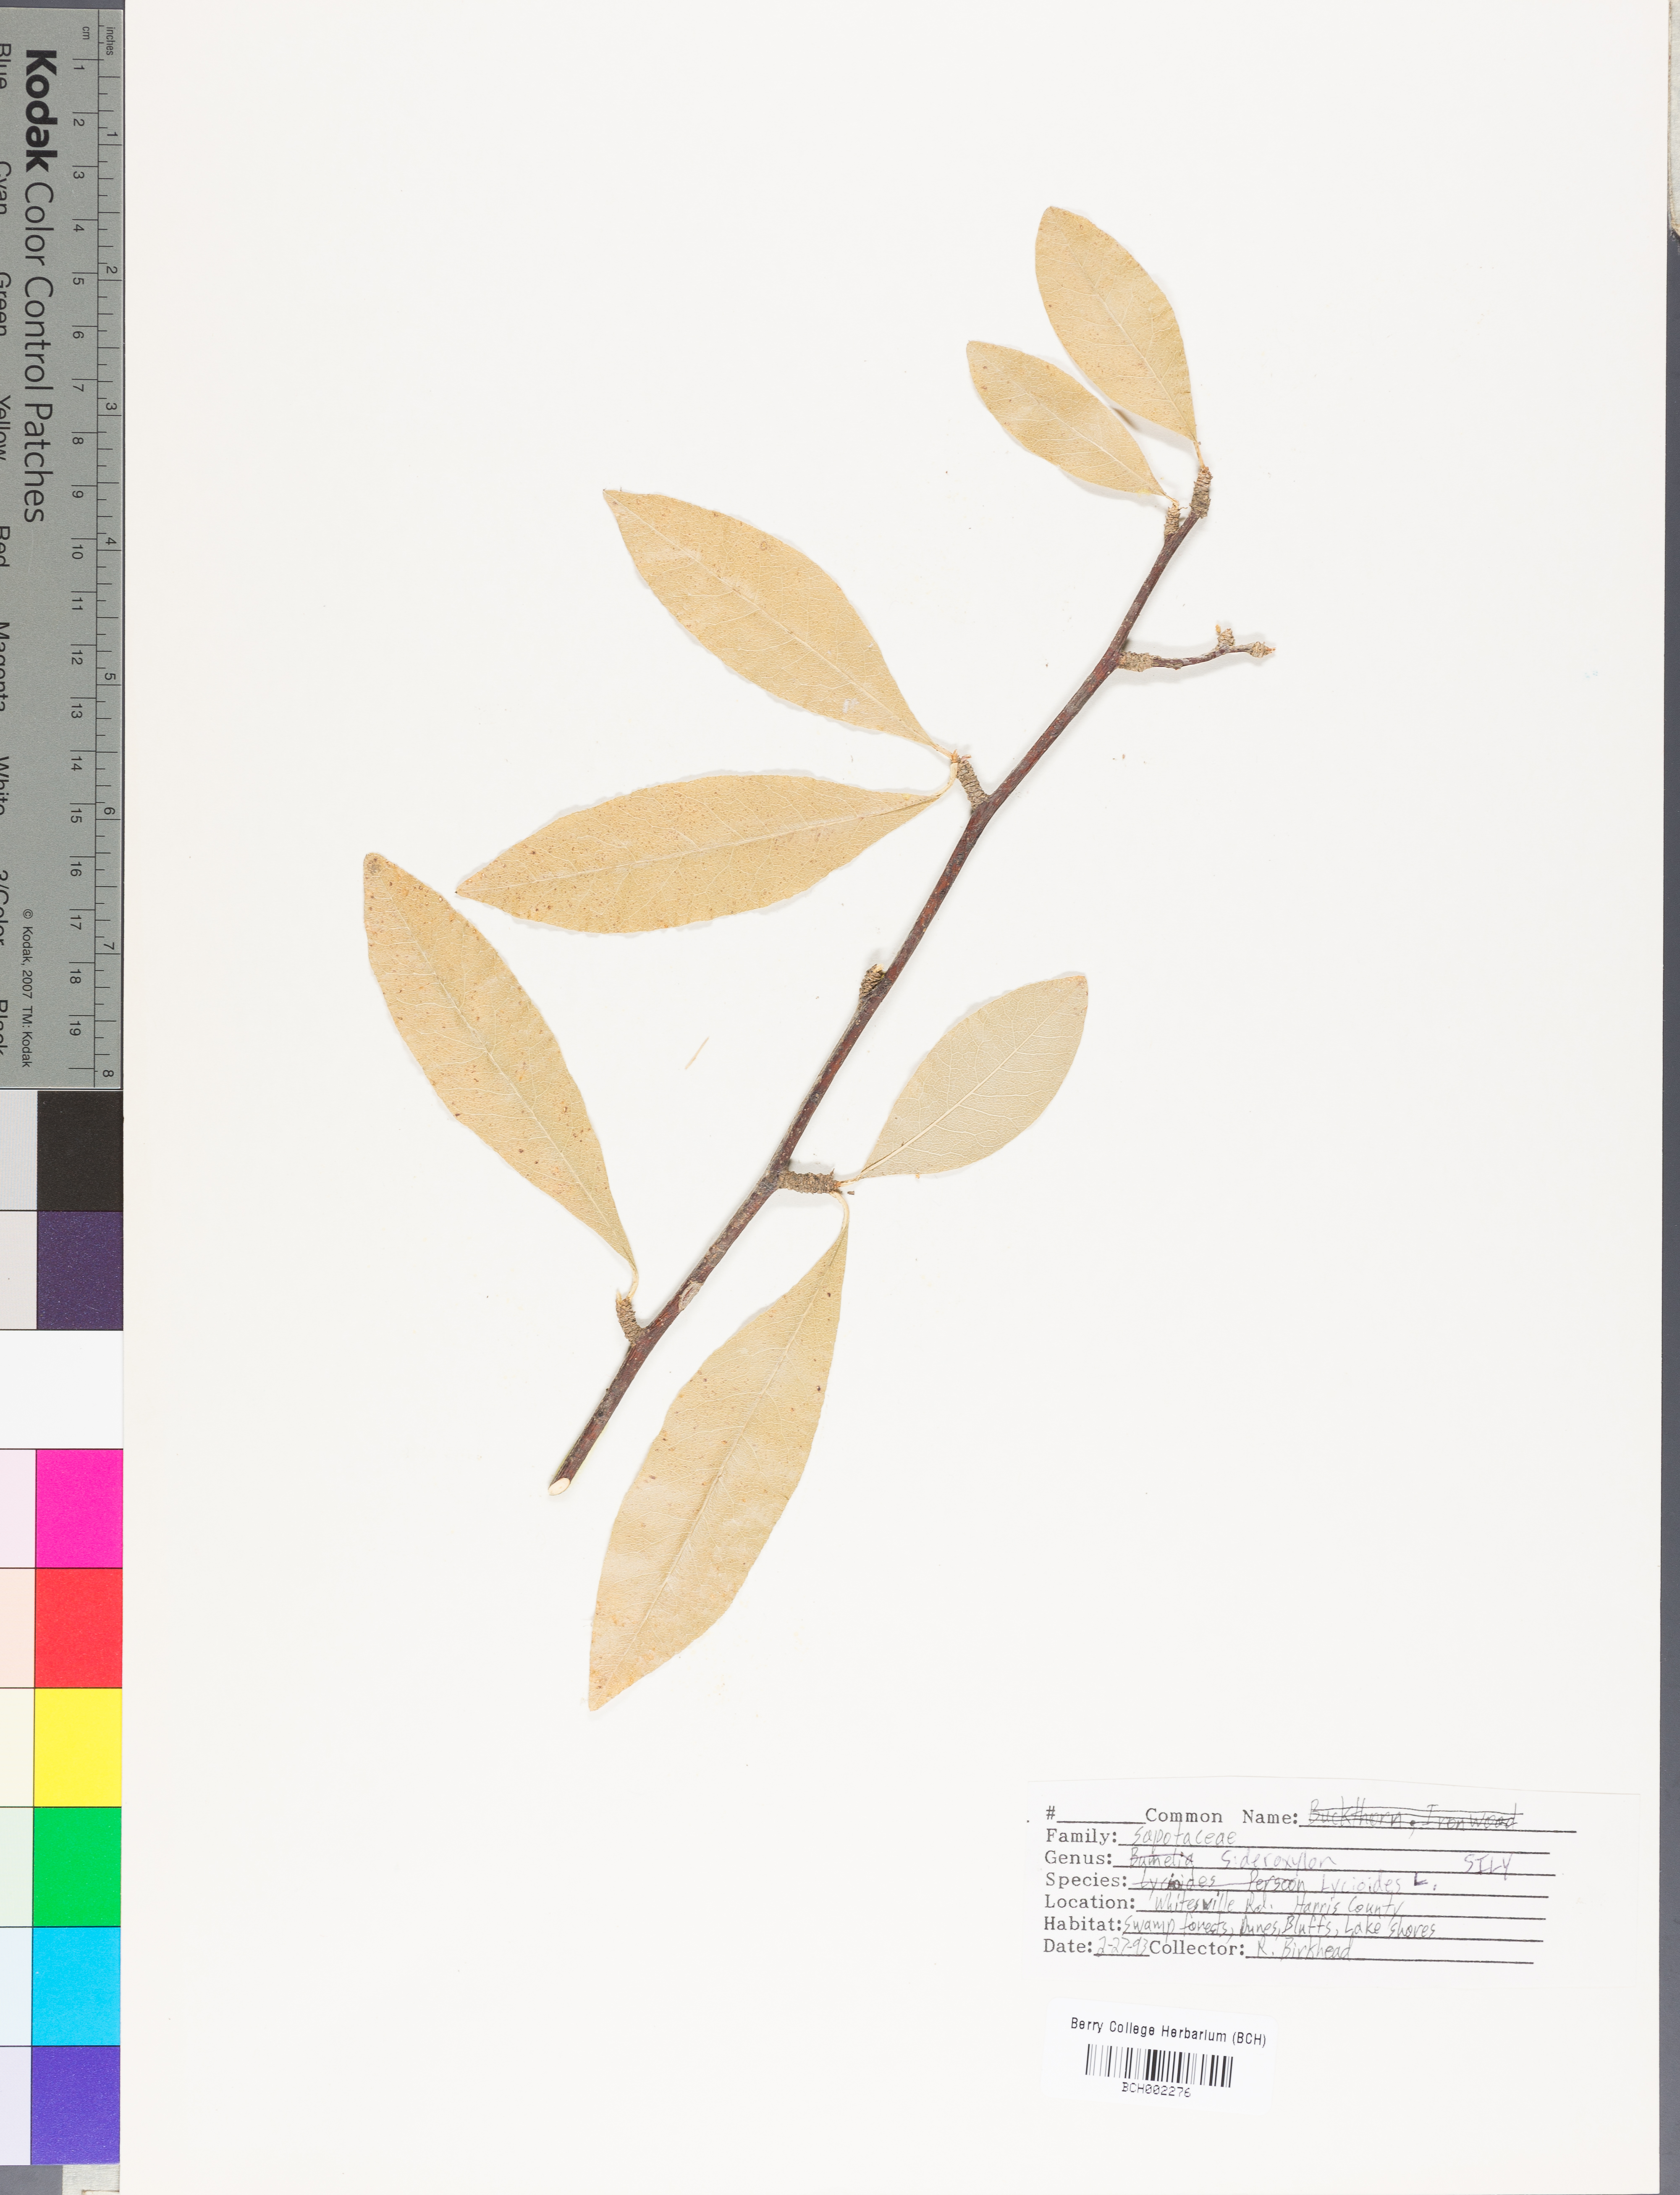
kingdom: Plantae
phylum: Tracheophyta
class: Magnoliopsida
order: Ericales
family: Sapotaceae
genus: Sideroxylon
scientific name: Sideroxylon lycioides
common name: Buckthorn bumelia
